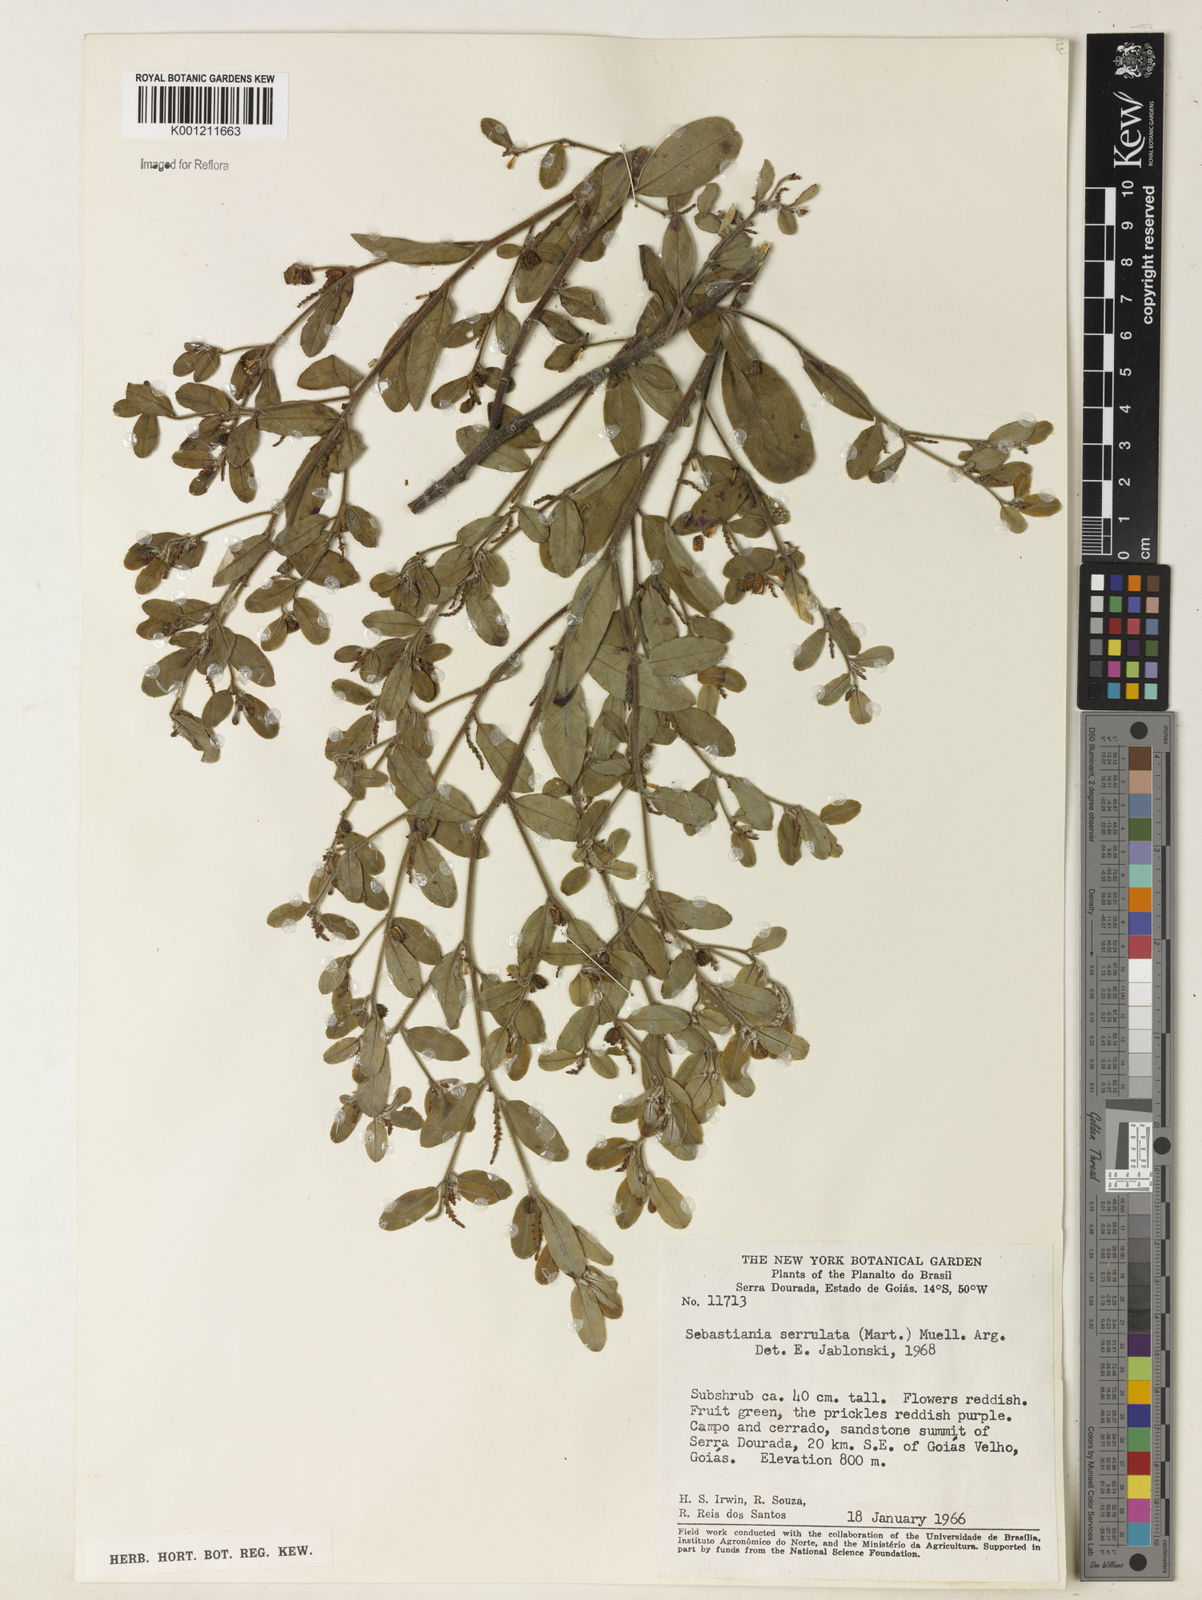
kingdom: Plantae
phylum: Tracheophyta
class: Magnoliopsida
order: Malpighiales
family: Euphorbiaceae
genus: Microstachys
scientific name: Microstachys
